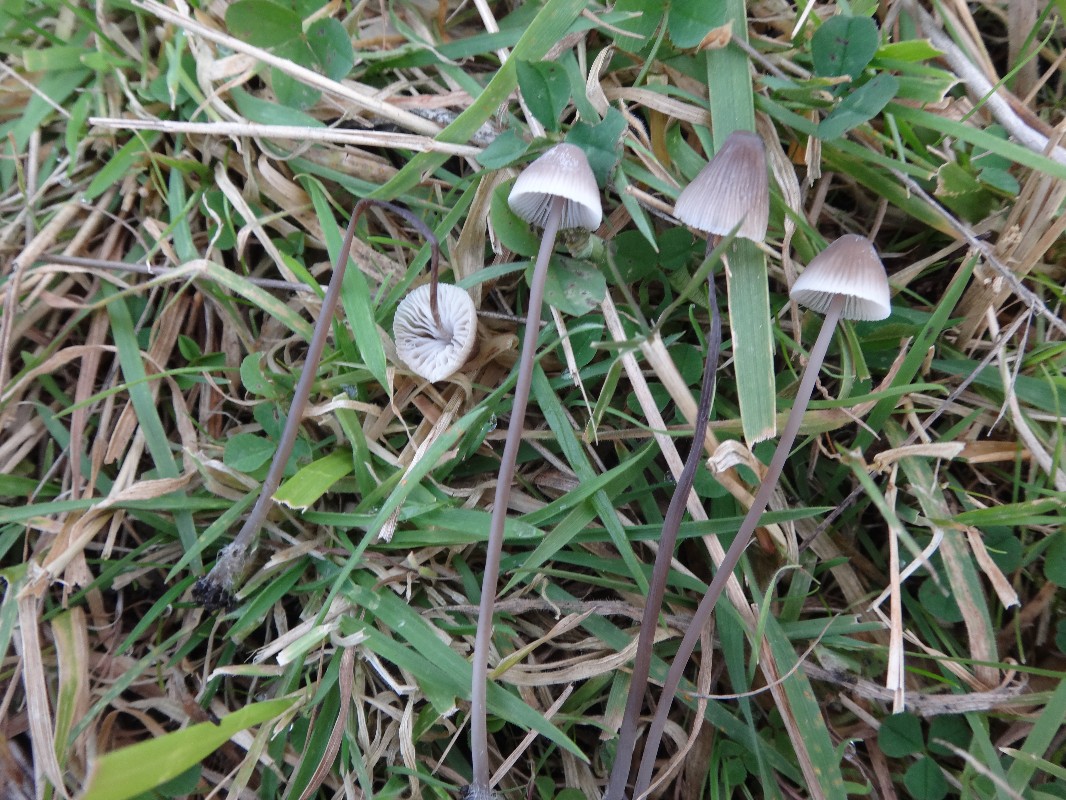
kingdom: Fungi
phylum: Basidiomycota
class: Agaricomycetes
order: Agaricales
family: Mycenaceae
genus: Mycena
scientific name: Mycena filopes
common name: jod-huesvamp
